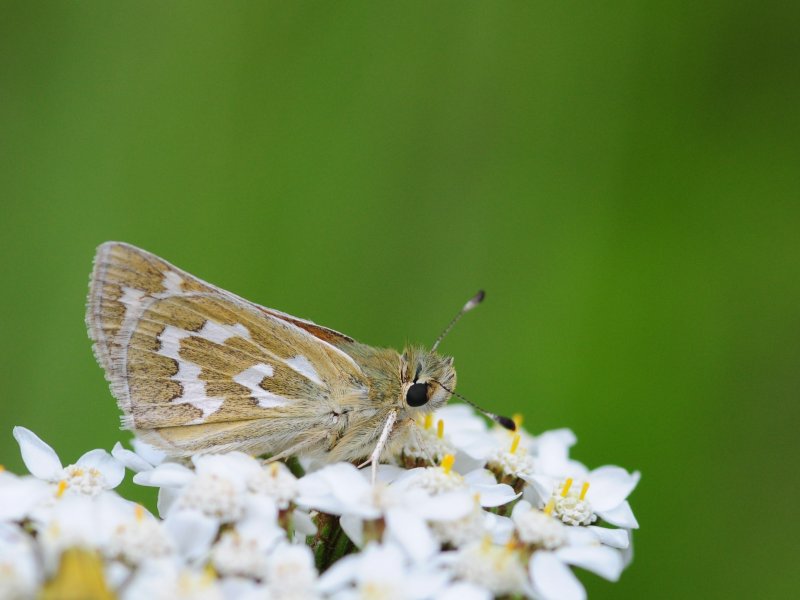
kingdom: Animalia
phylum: Arthropoda
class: Insecta
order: Lepidoptera
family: Hesperiidae
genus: Hesperia
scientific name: Hesperia comma
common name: Western Branded Skipper
